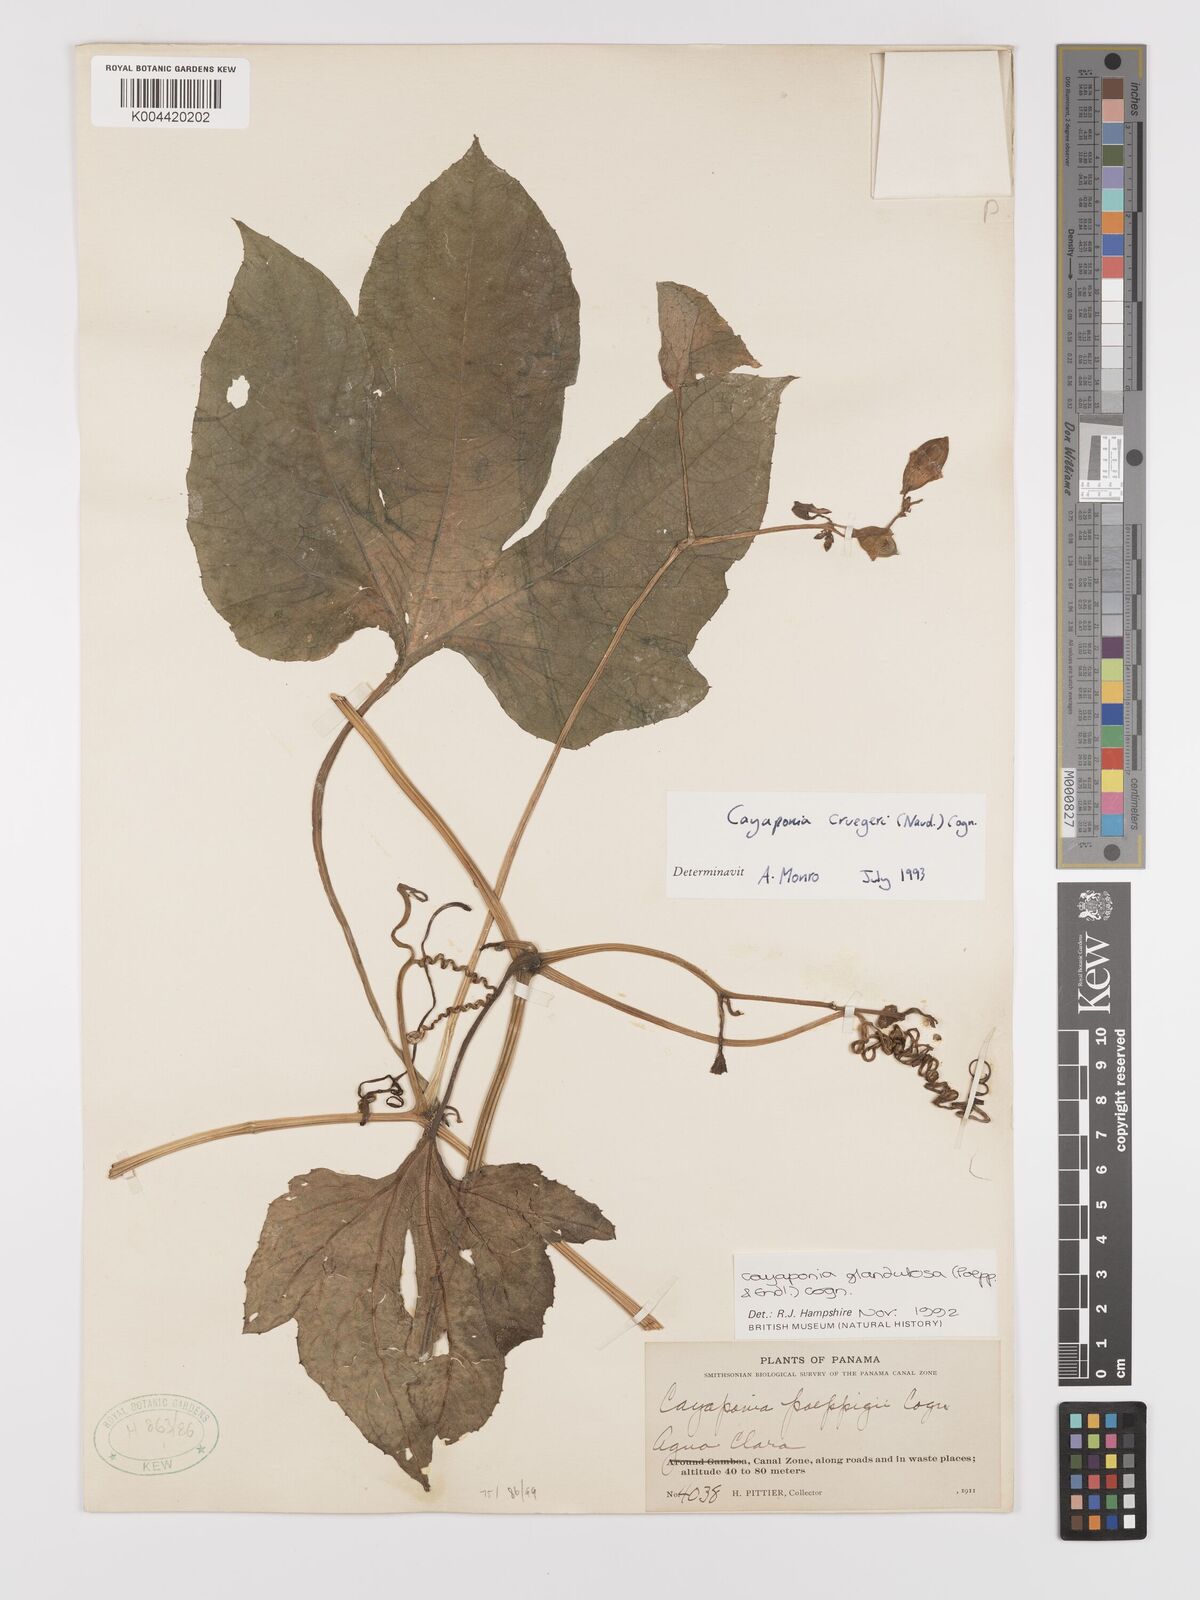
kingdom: Plantae
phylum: Tracheophyta
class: Magnoliopsida
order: Cucurbitales
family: Cucurbitaceae
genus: Cayaponia
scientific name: Cayaponia cruegeri
